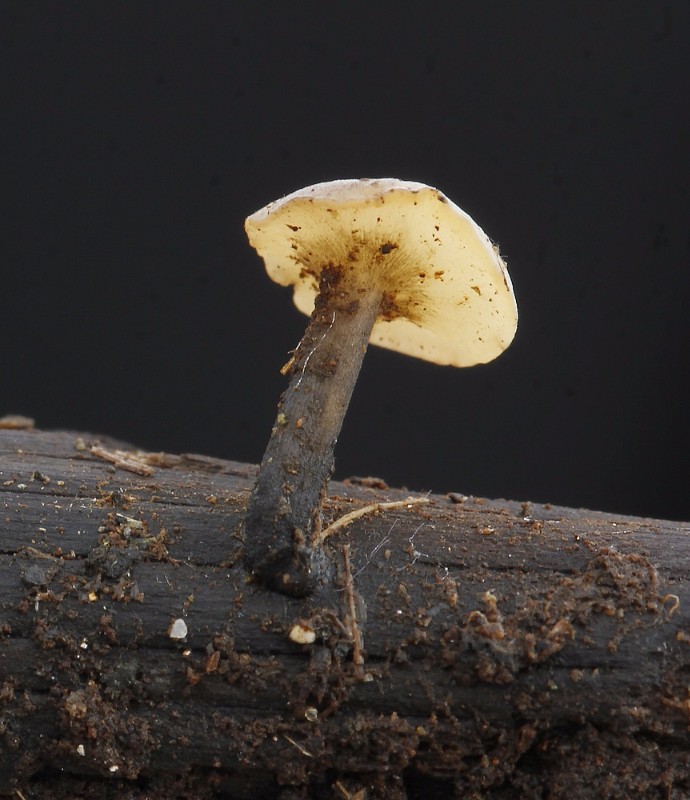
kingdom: Fungi
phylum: Ascomycota
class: Leotiomycetes
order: Helotiales
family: Helotiaceae
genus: Hymenoscyphus
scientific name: Hymenoscyphus vernus
